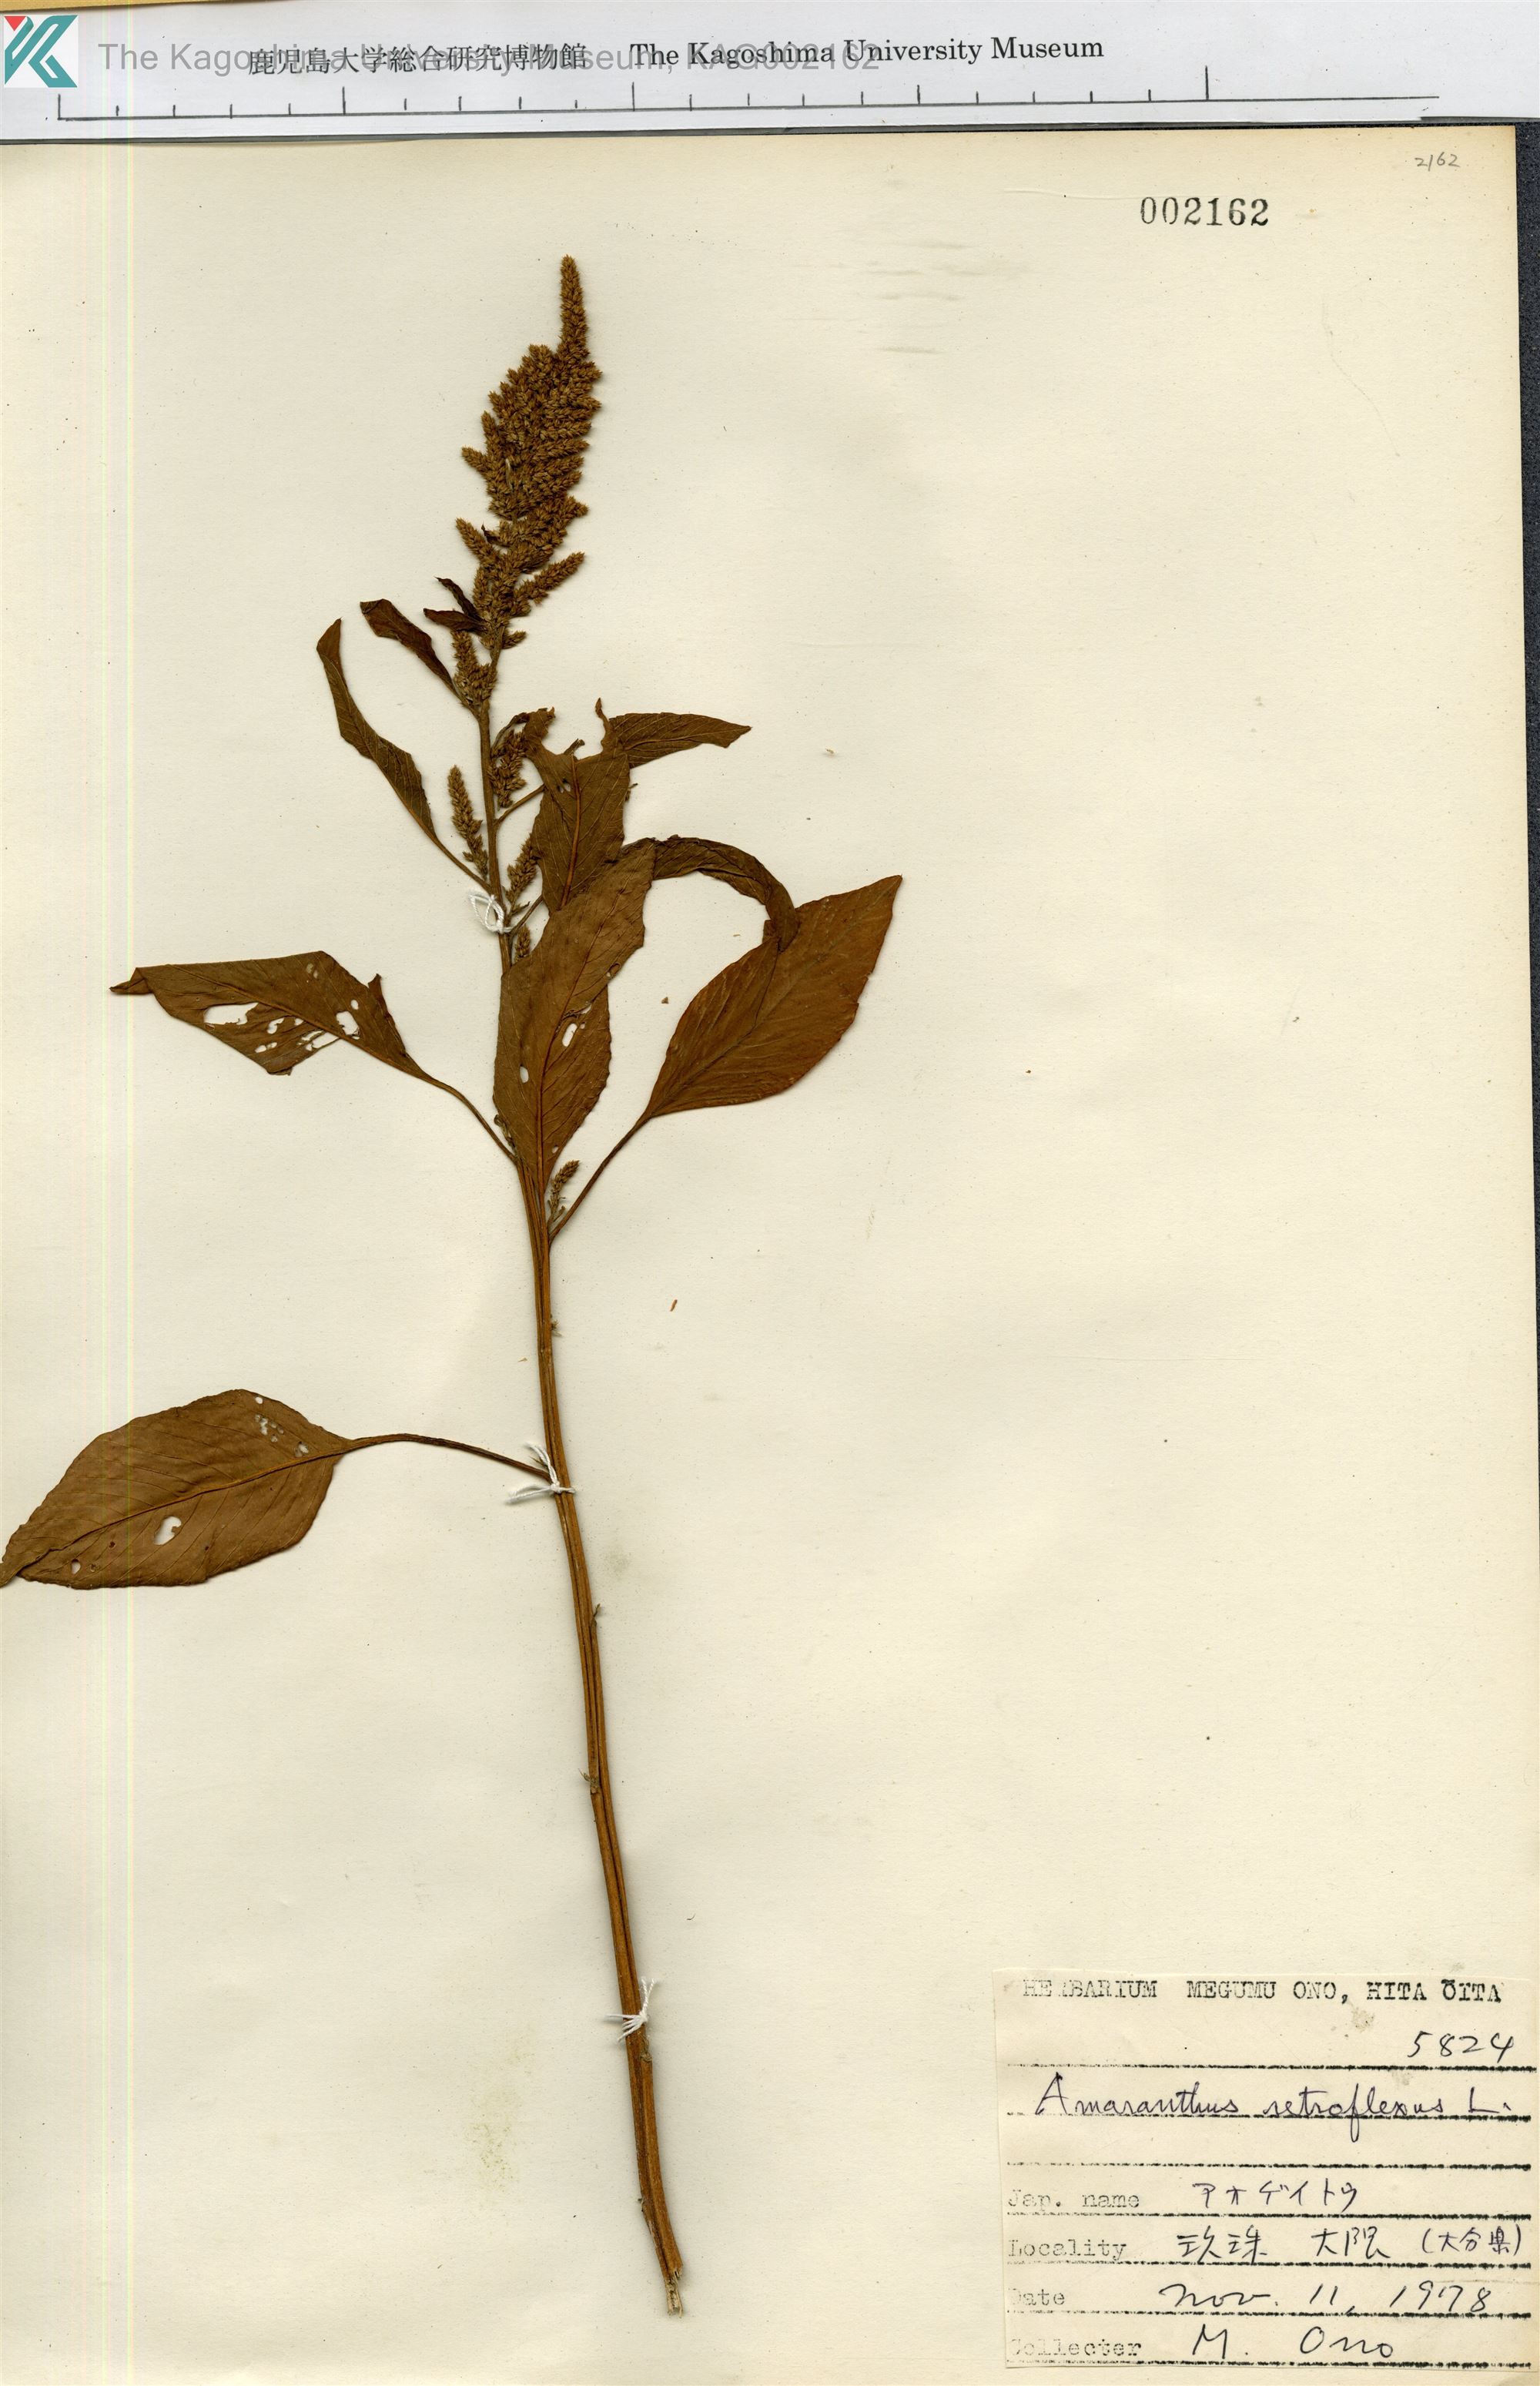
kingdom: Plantae
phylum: Tracheophyta
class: Magnoliopsida
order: Caryophyllales
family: Amaranthaceae
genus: Amaranthus
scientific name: Amaranthus retroflexus
